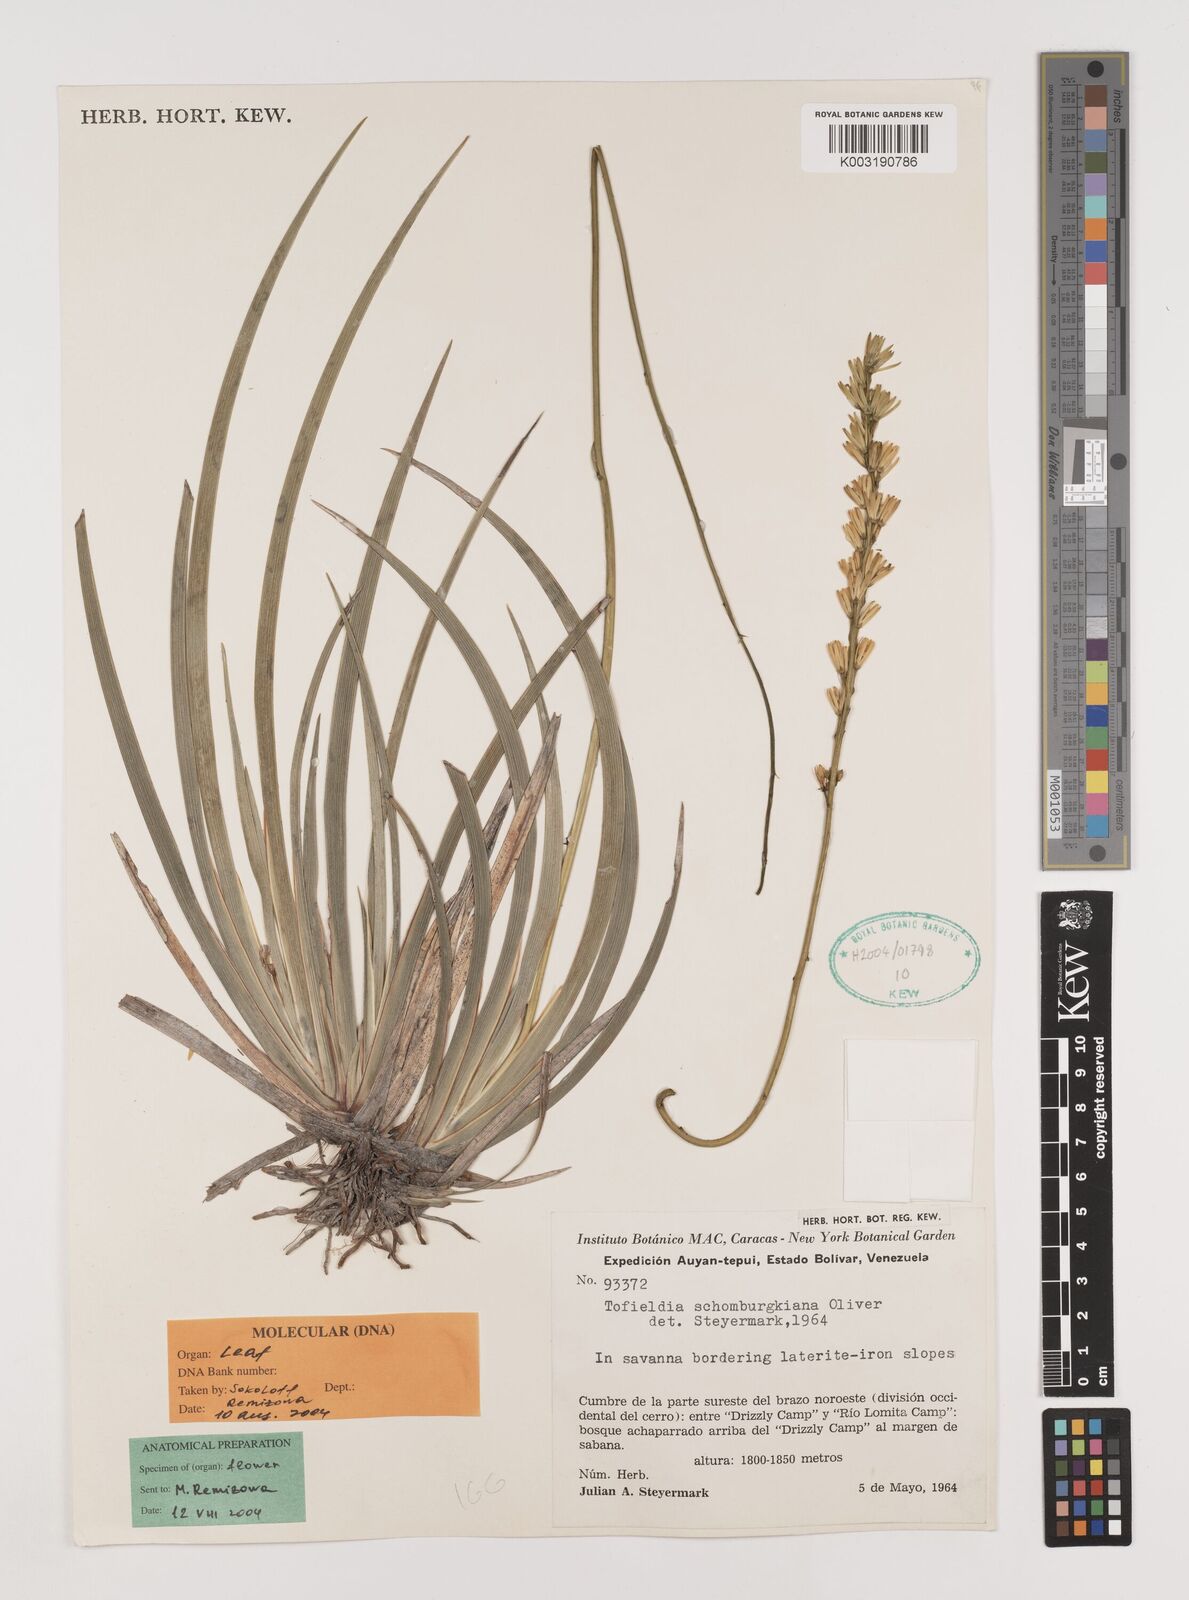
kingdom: Plantae
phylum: Tracheophyta
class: Liliopsida
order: Alismatales
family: Tofieldiaceae
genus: Harperocallis
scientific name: Harperocallis schomburgkiana
